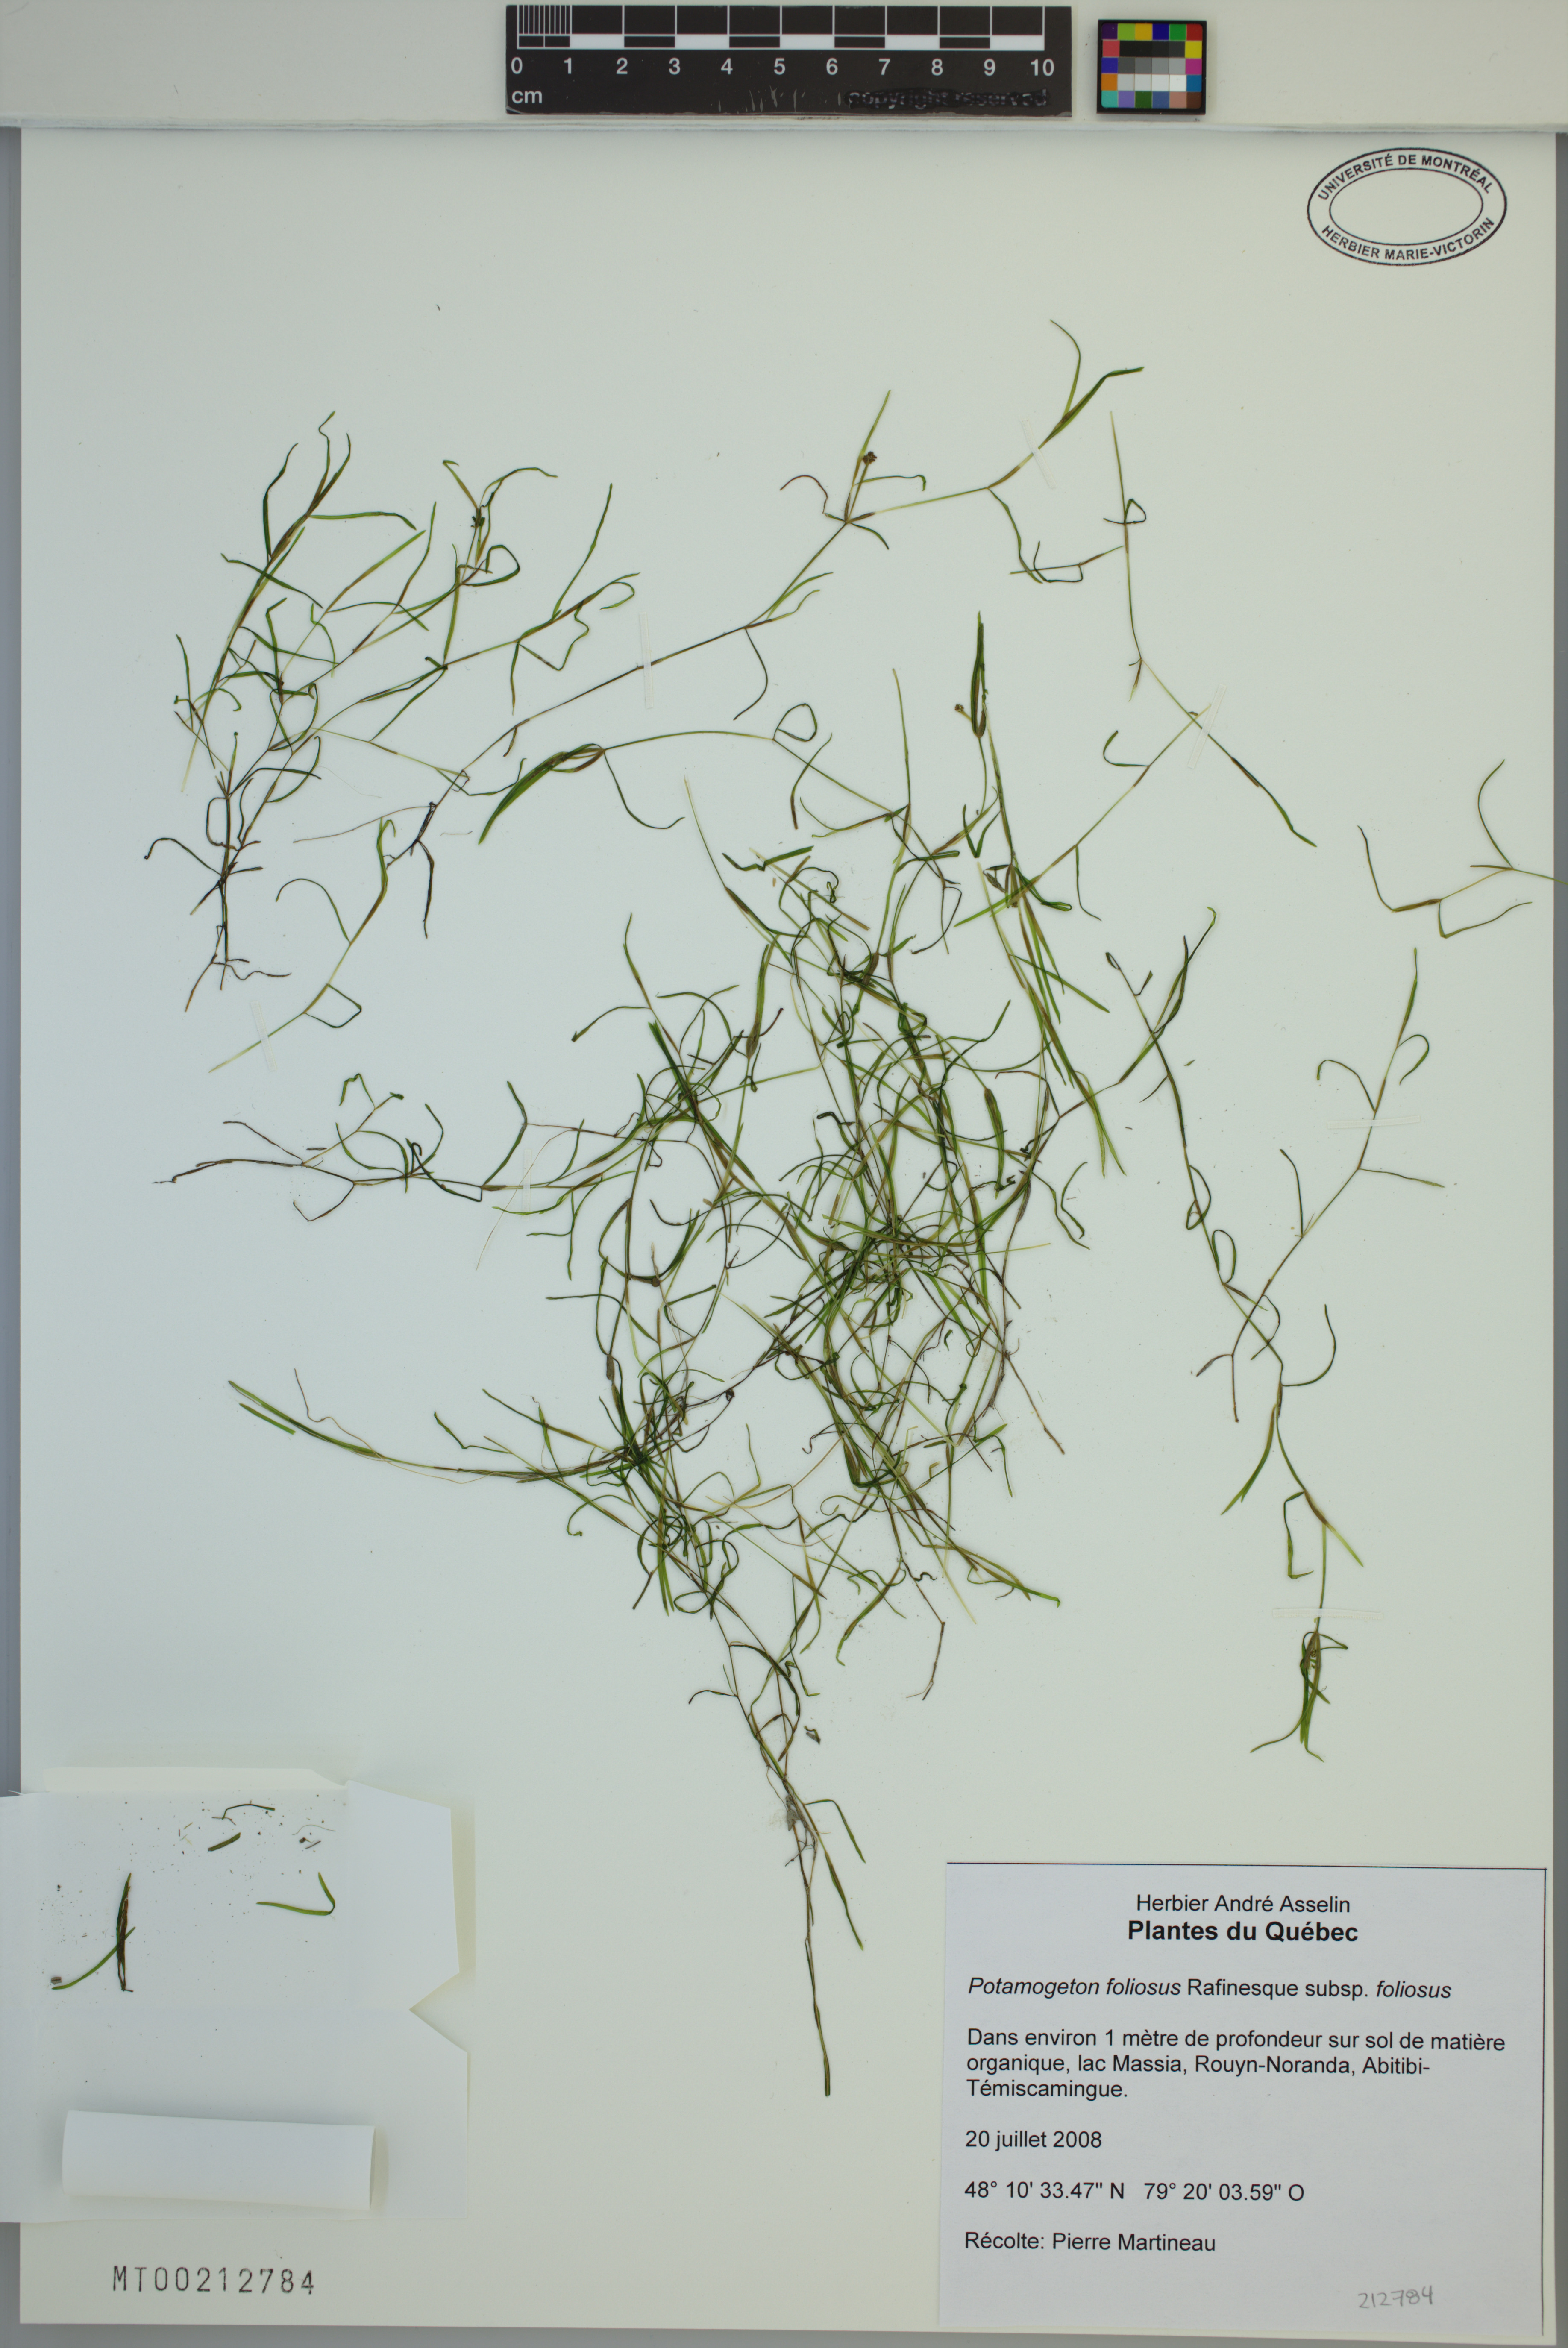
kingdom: Plantae
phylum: Tracheophyta
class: Liliopsida
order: Alismatales
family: Potamogetonaceae
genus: Potamogeton
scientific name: Potamogeton foliosus
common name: Leafy pondweed
